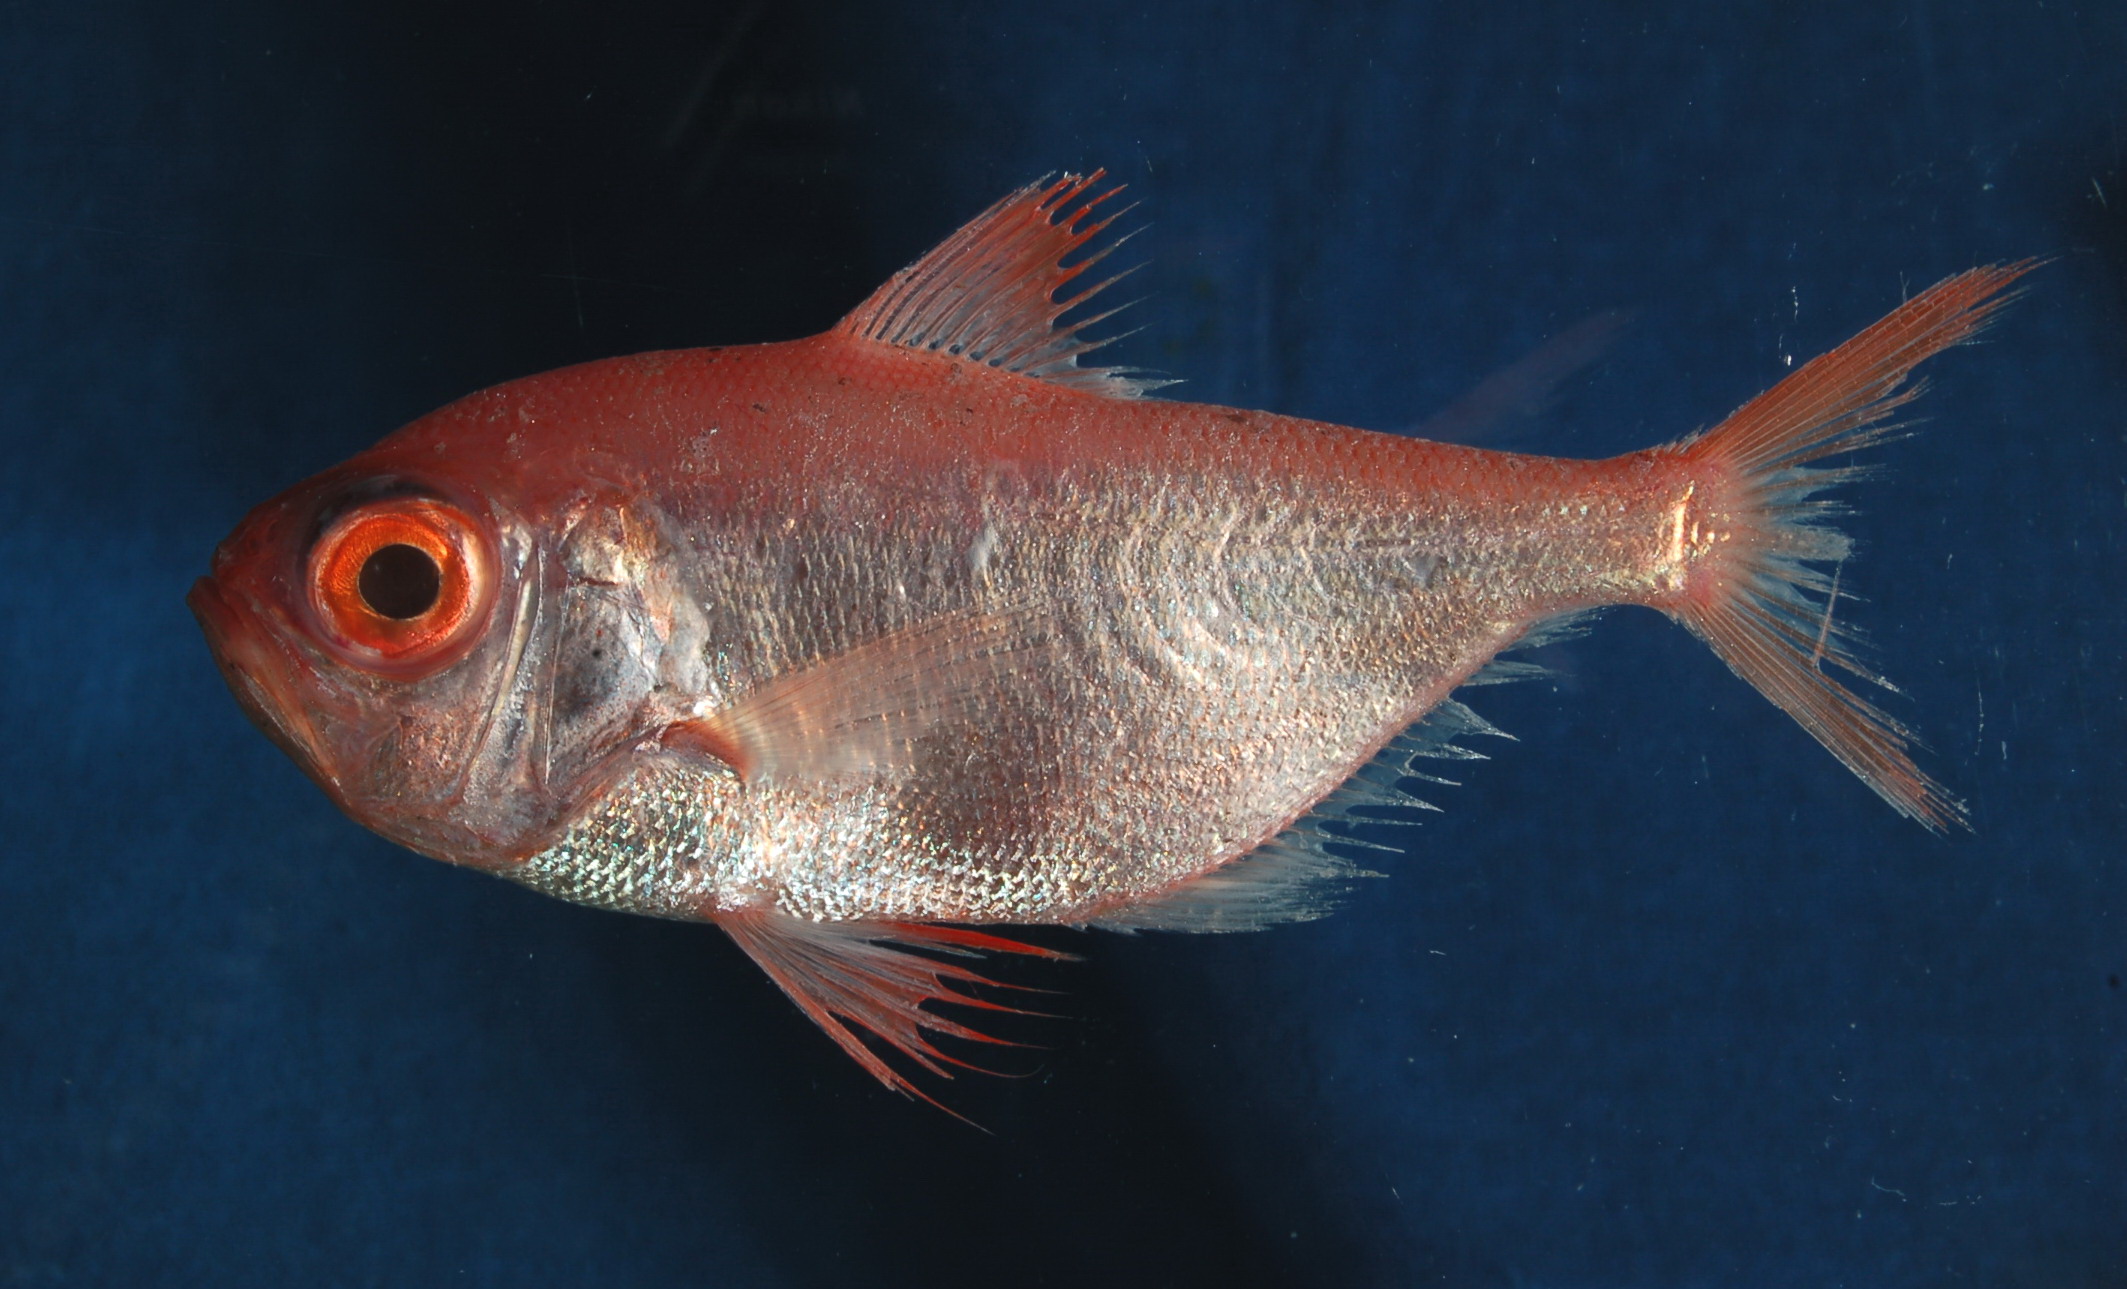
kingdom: Animalia
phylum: Chordata
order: Beryciformes
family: Berycidae
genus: Beryx
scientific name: Beryx splendens
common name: Lowe's beryx
